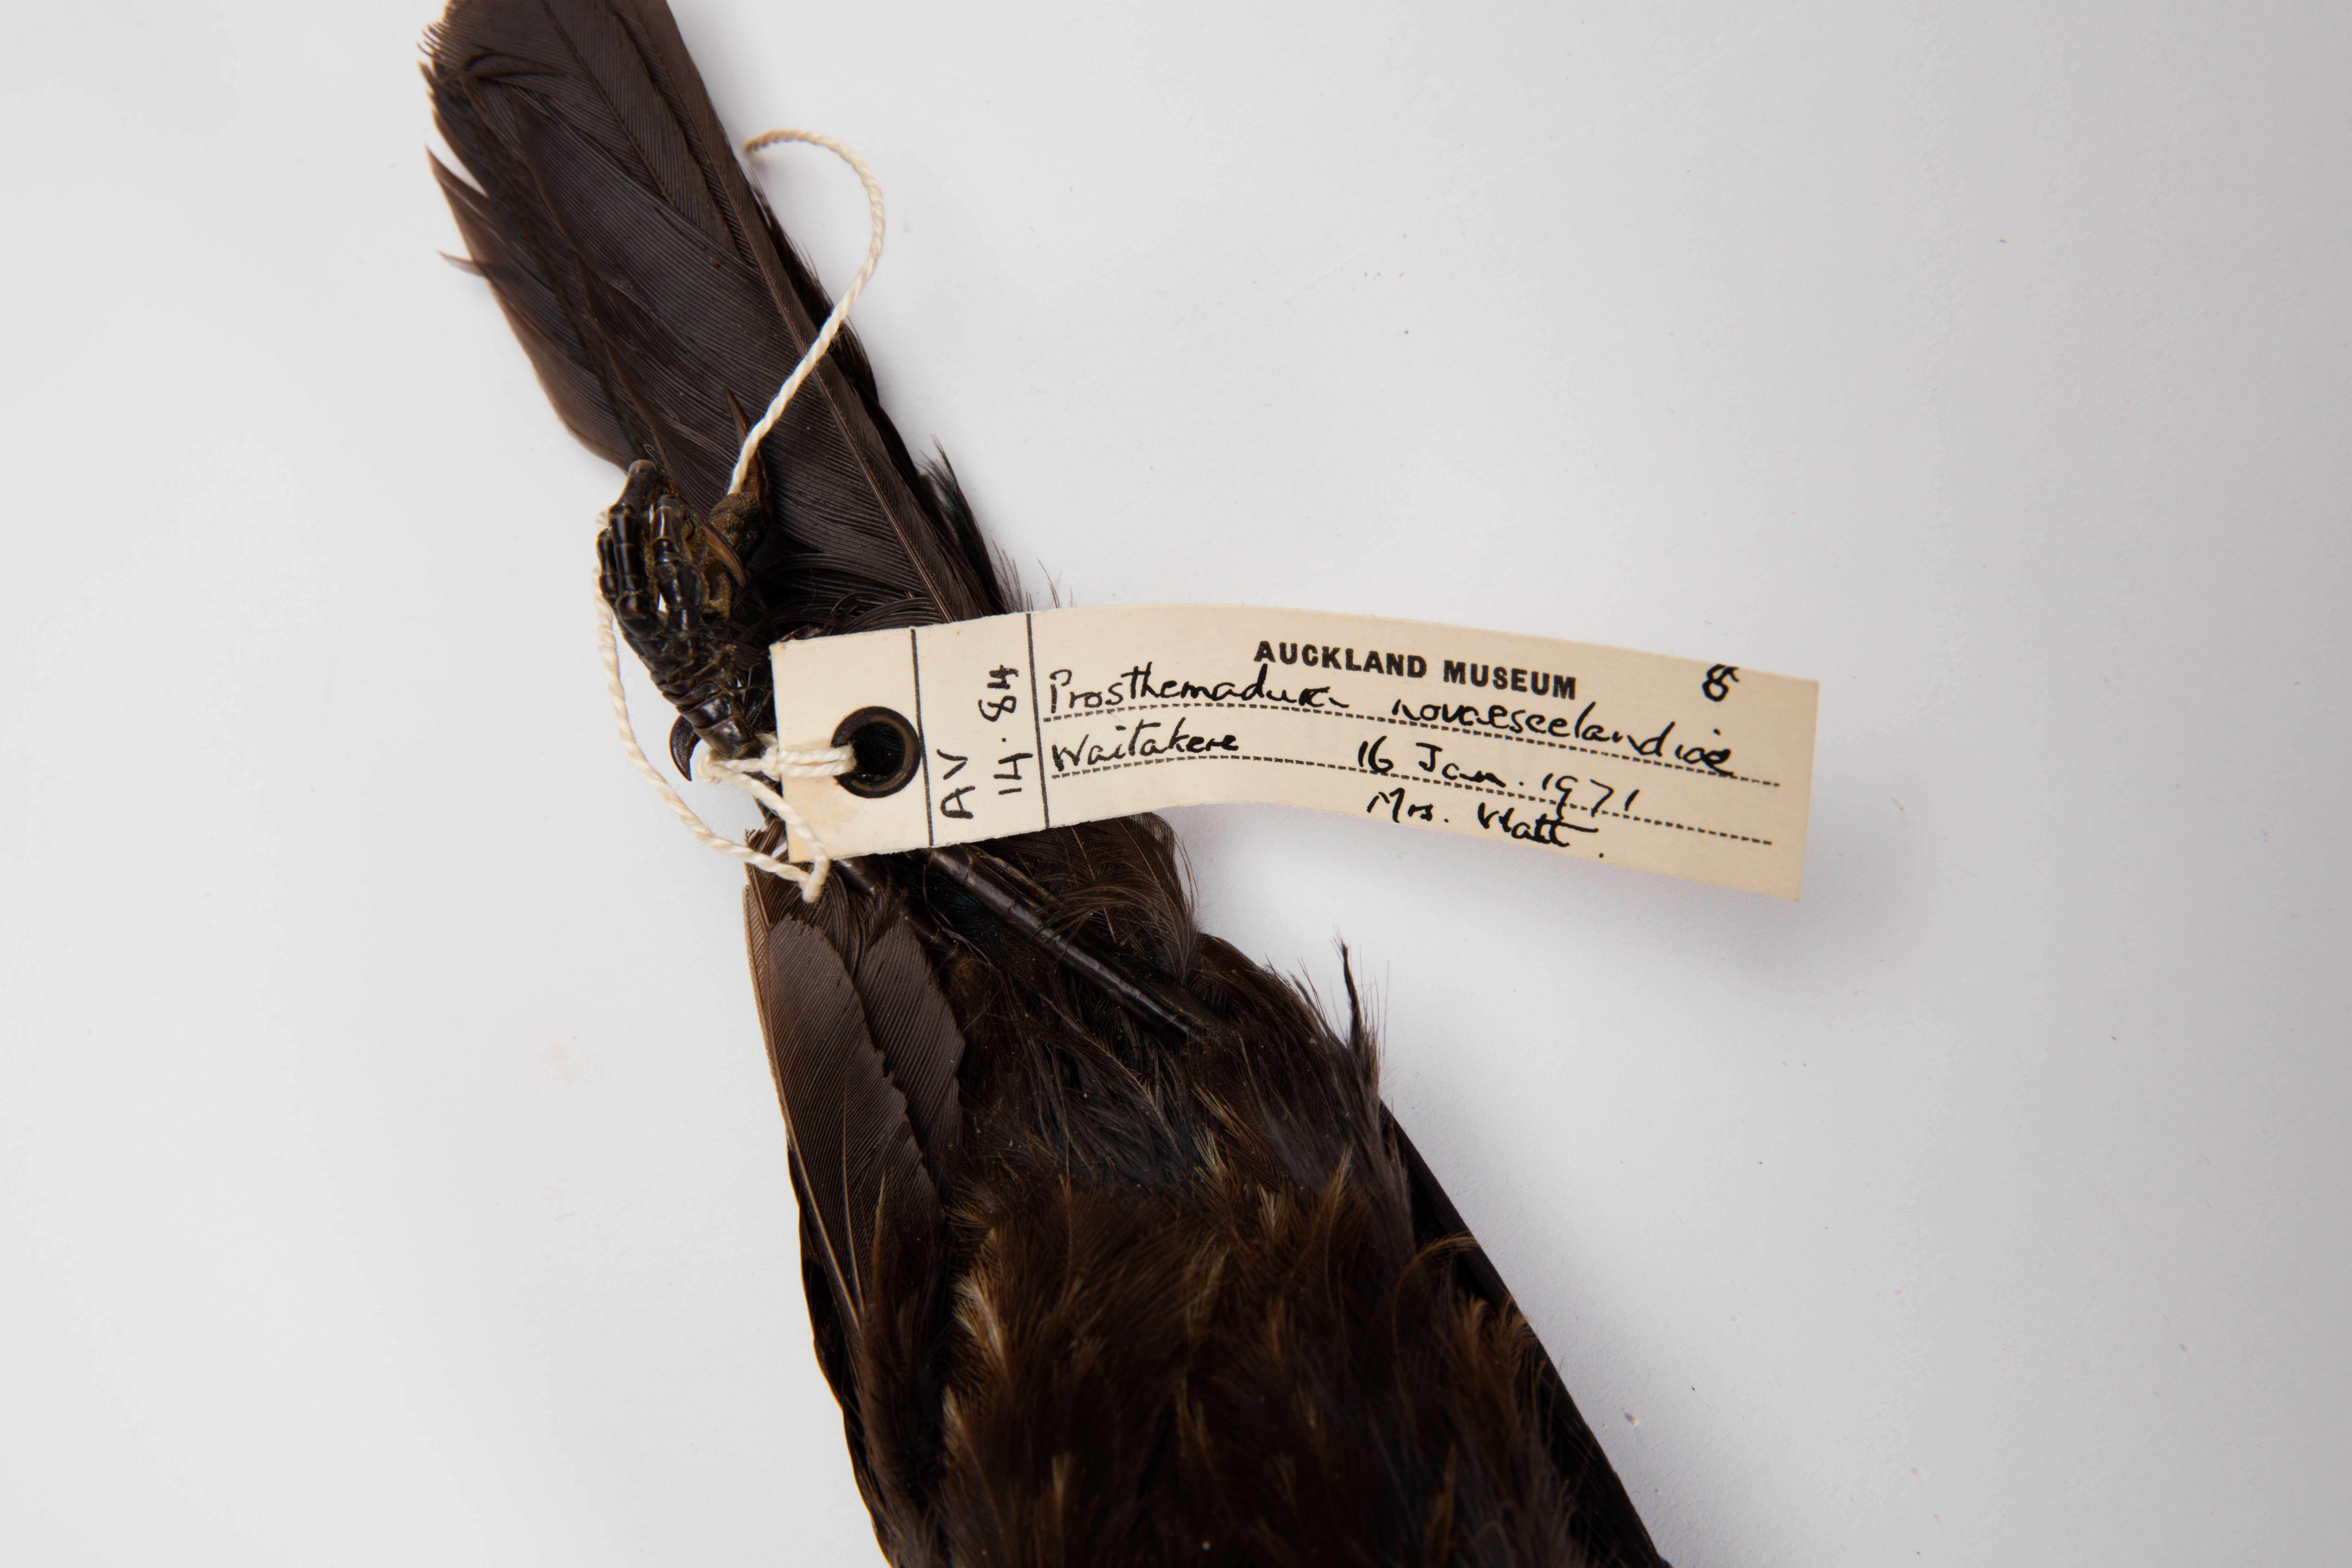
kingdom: Animalia
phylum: Chordata
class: Aves
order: Passeriformes
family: Meliphagidae
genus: Prosthemadera
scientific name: Prosthemadera novaeseelandiae
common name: Tui
